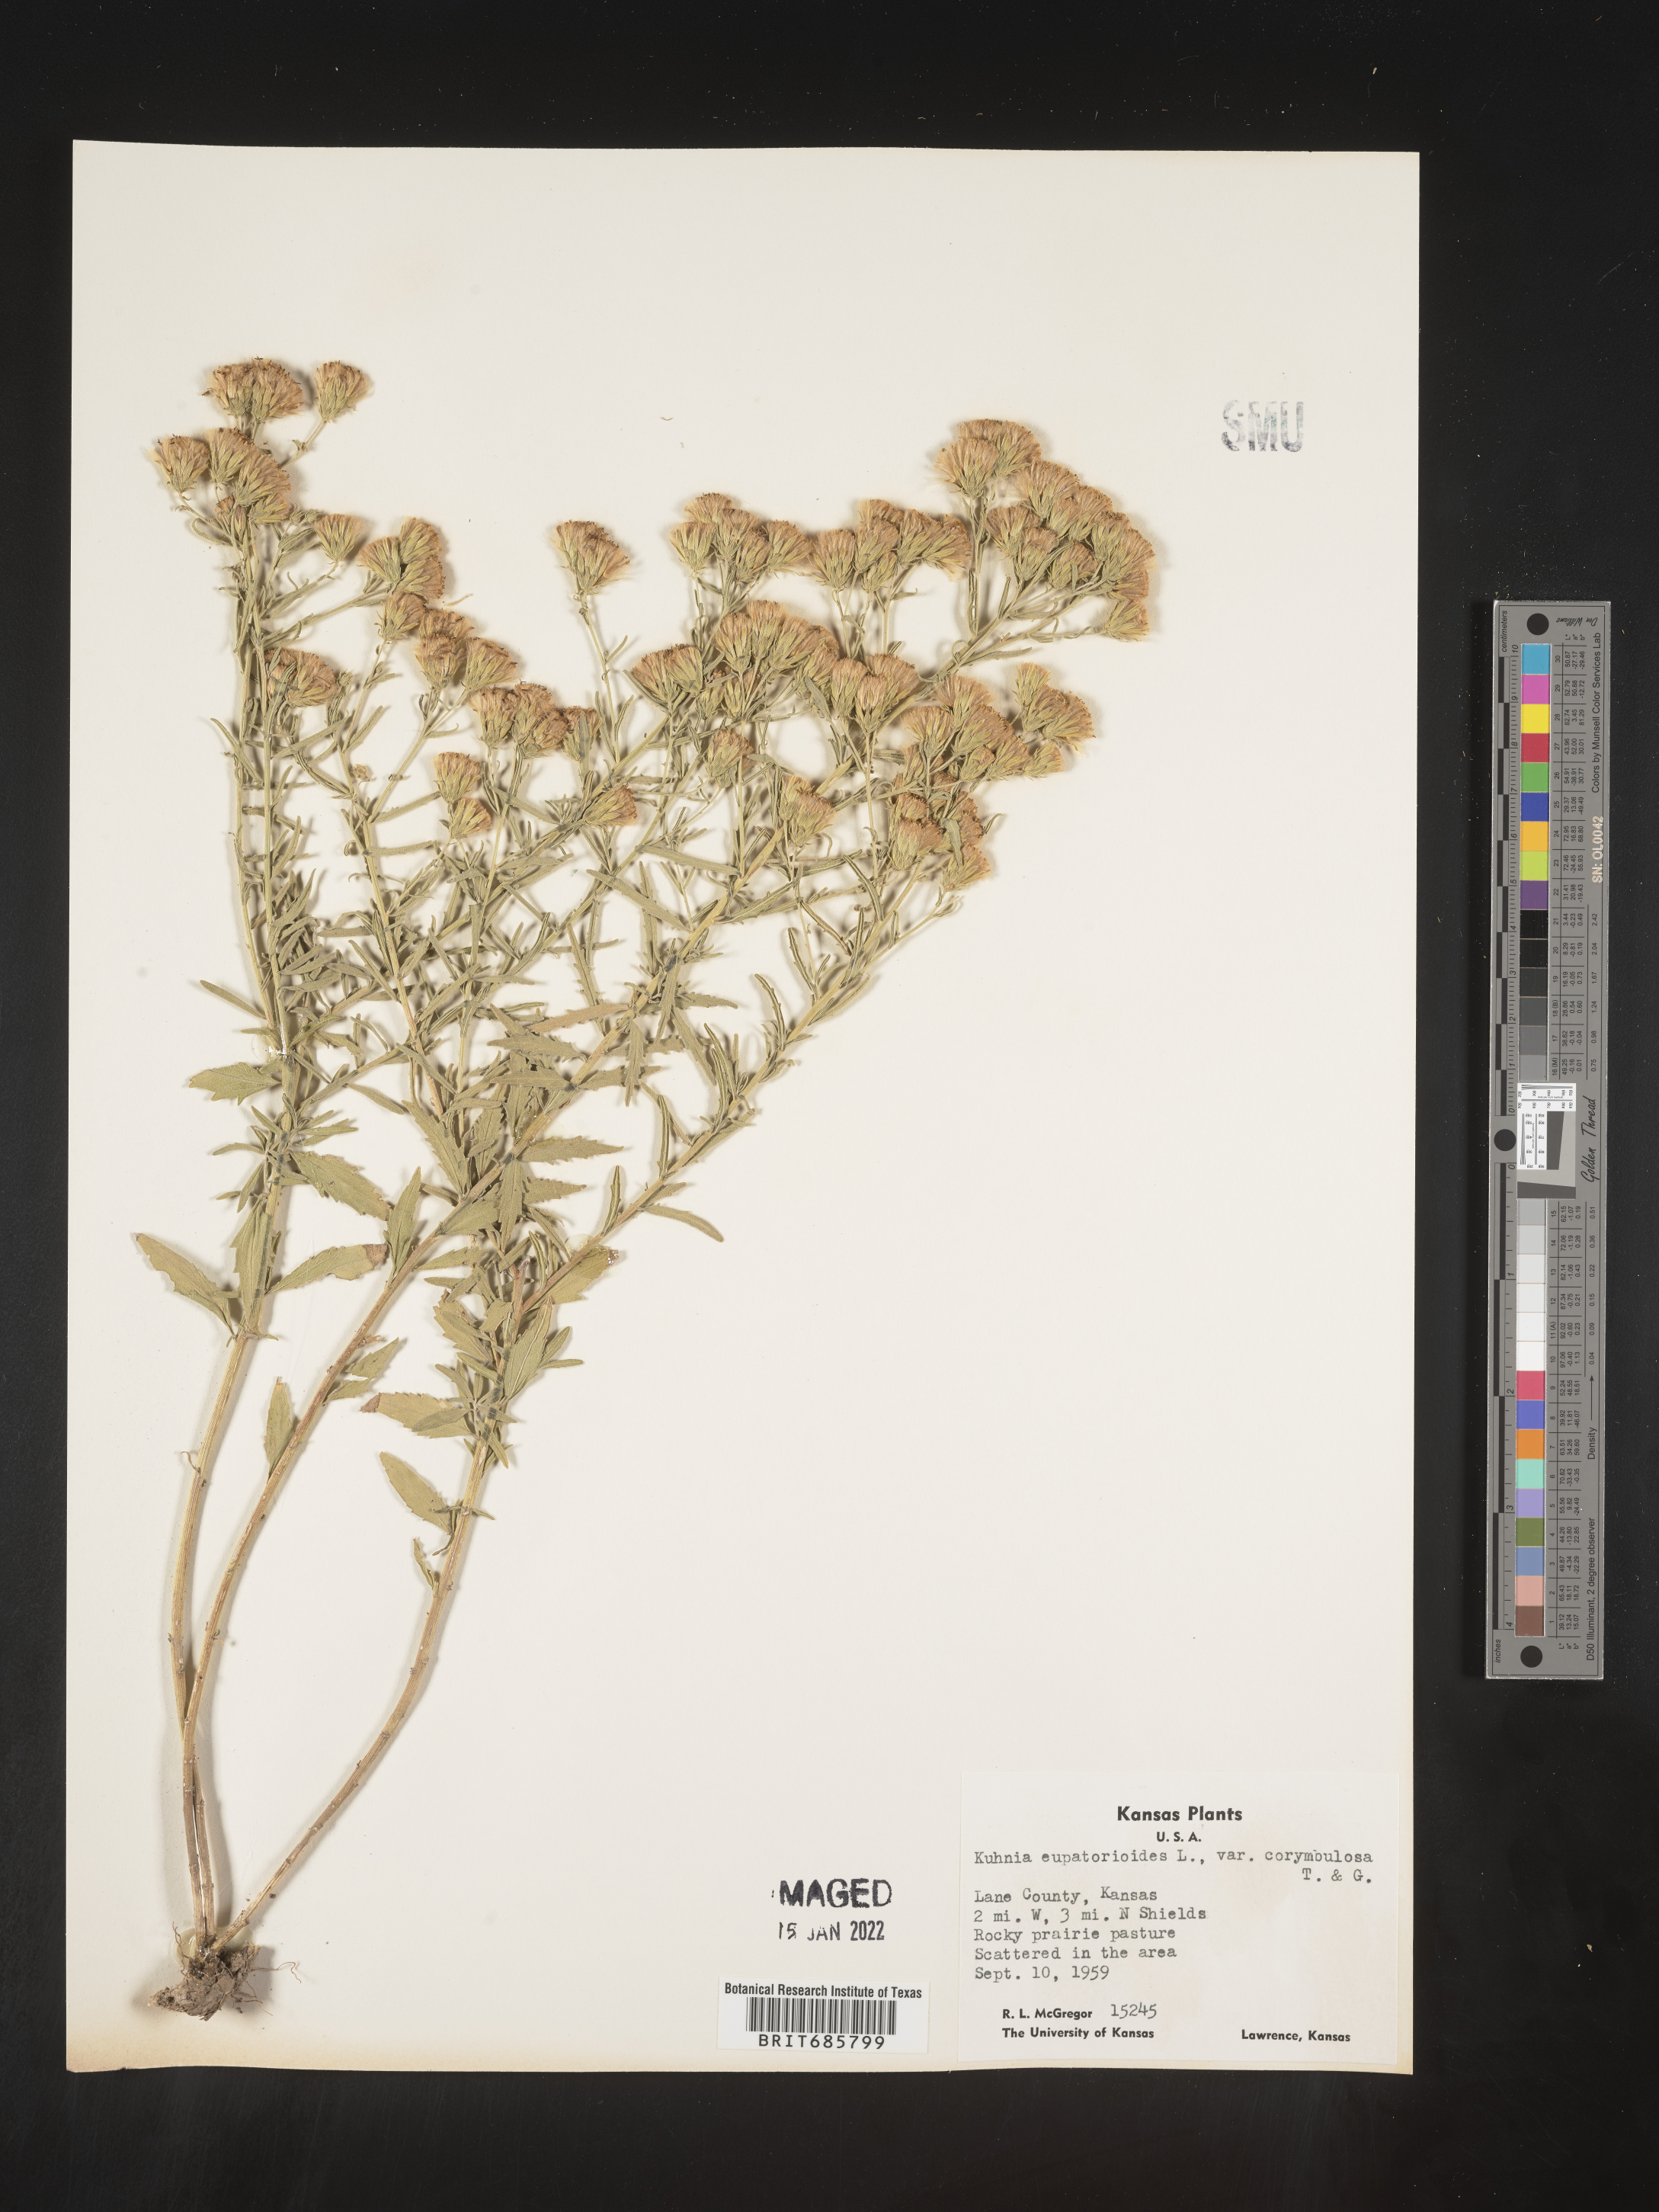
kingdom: Plantae
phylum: Tracheophyta
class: Magnoliopsida
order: Asterales
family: Asteraceae
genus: Brickellia
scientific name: Brickellia eupatorioides
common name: False boneset
